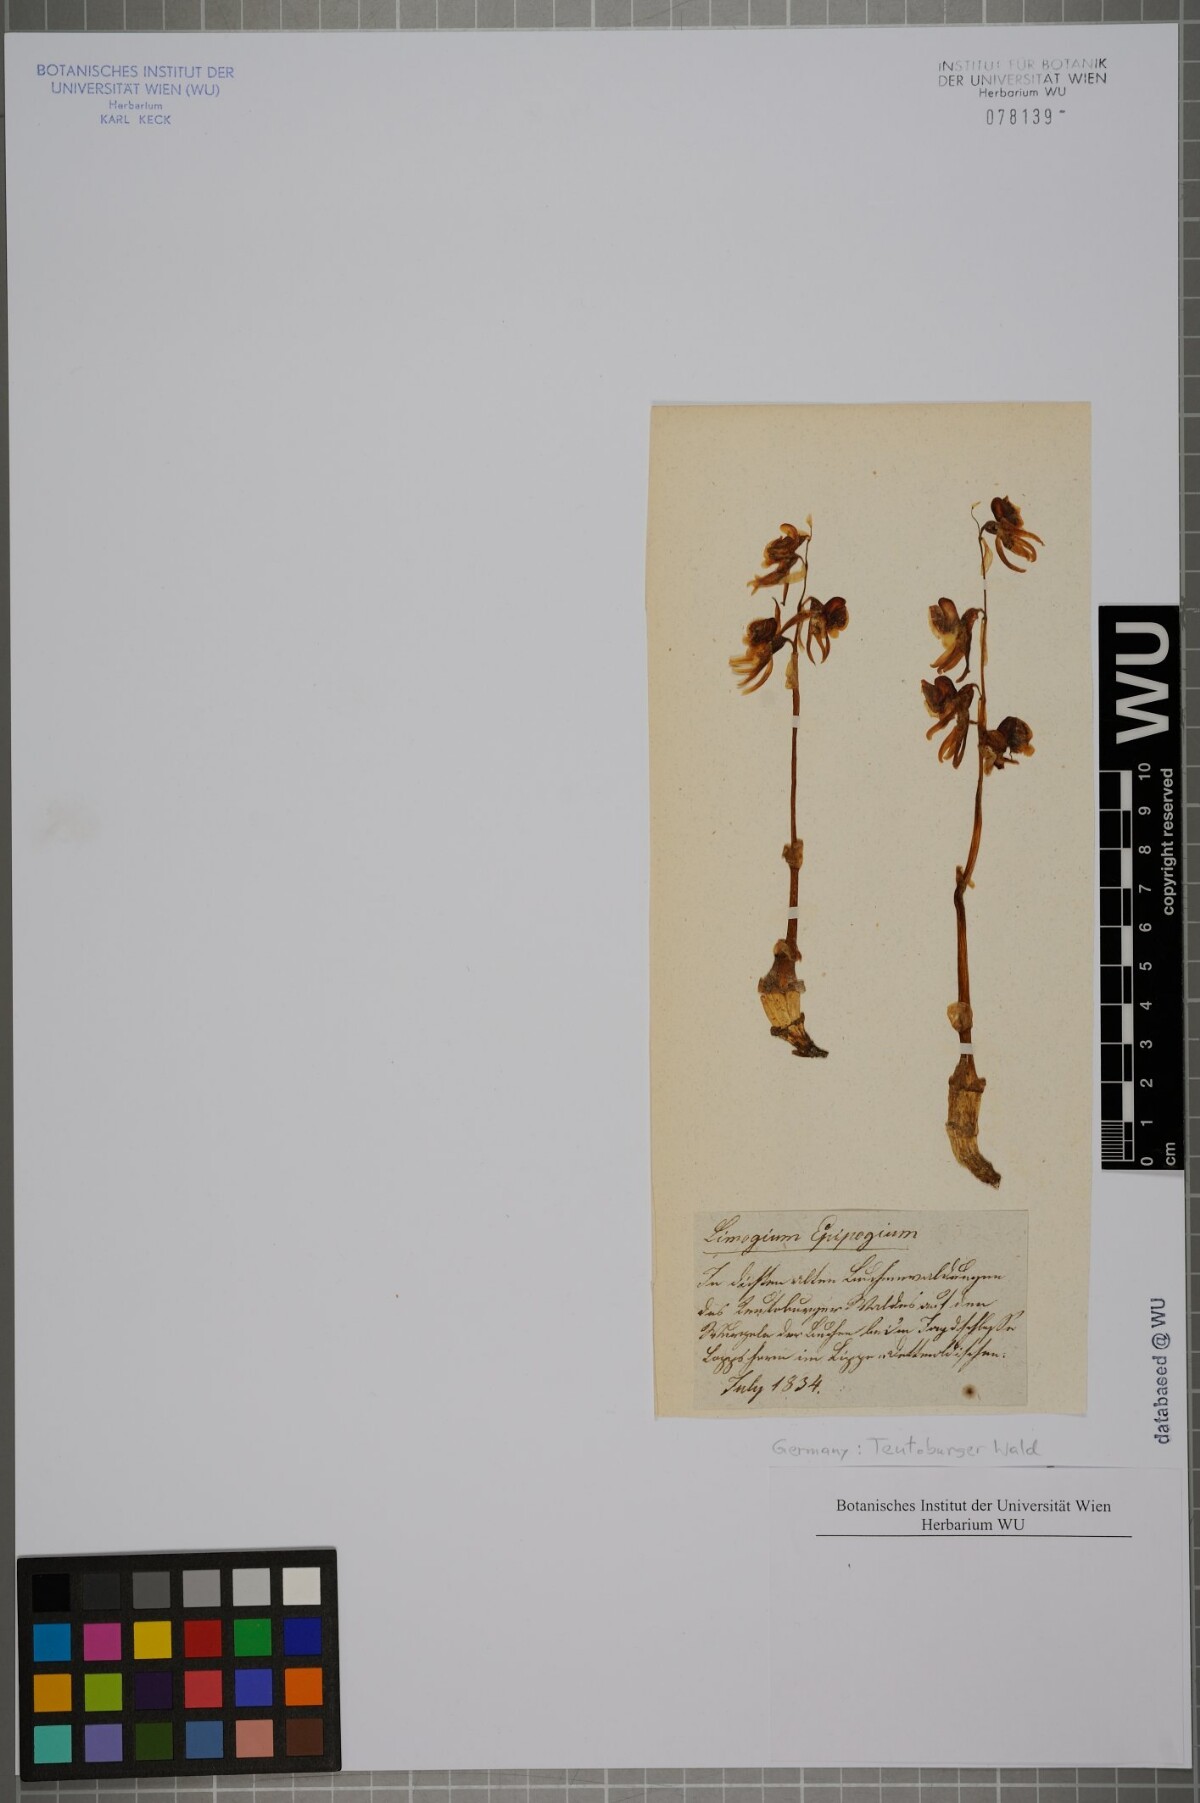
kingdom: Plantae
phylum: Tracheophyta
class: Liliopsida
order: Asparagales
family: Orchidaceae
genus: Epipogium
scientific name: Epipogium aphyllum
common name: Ghost orchid
